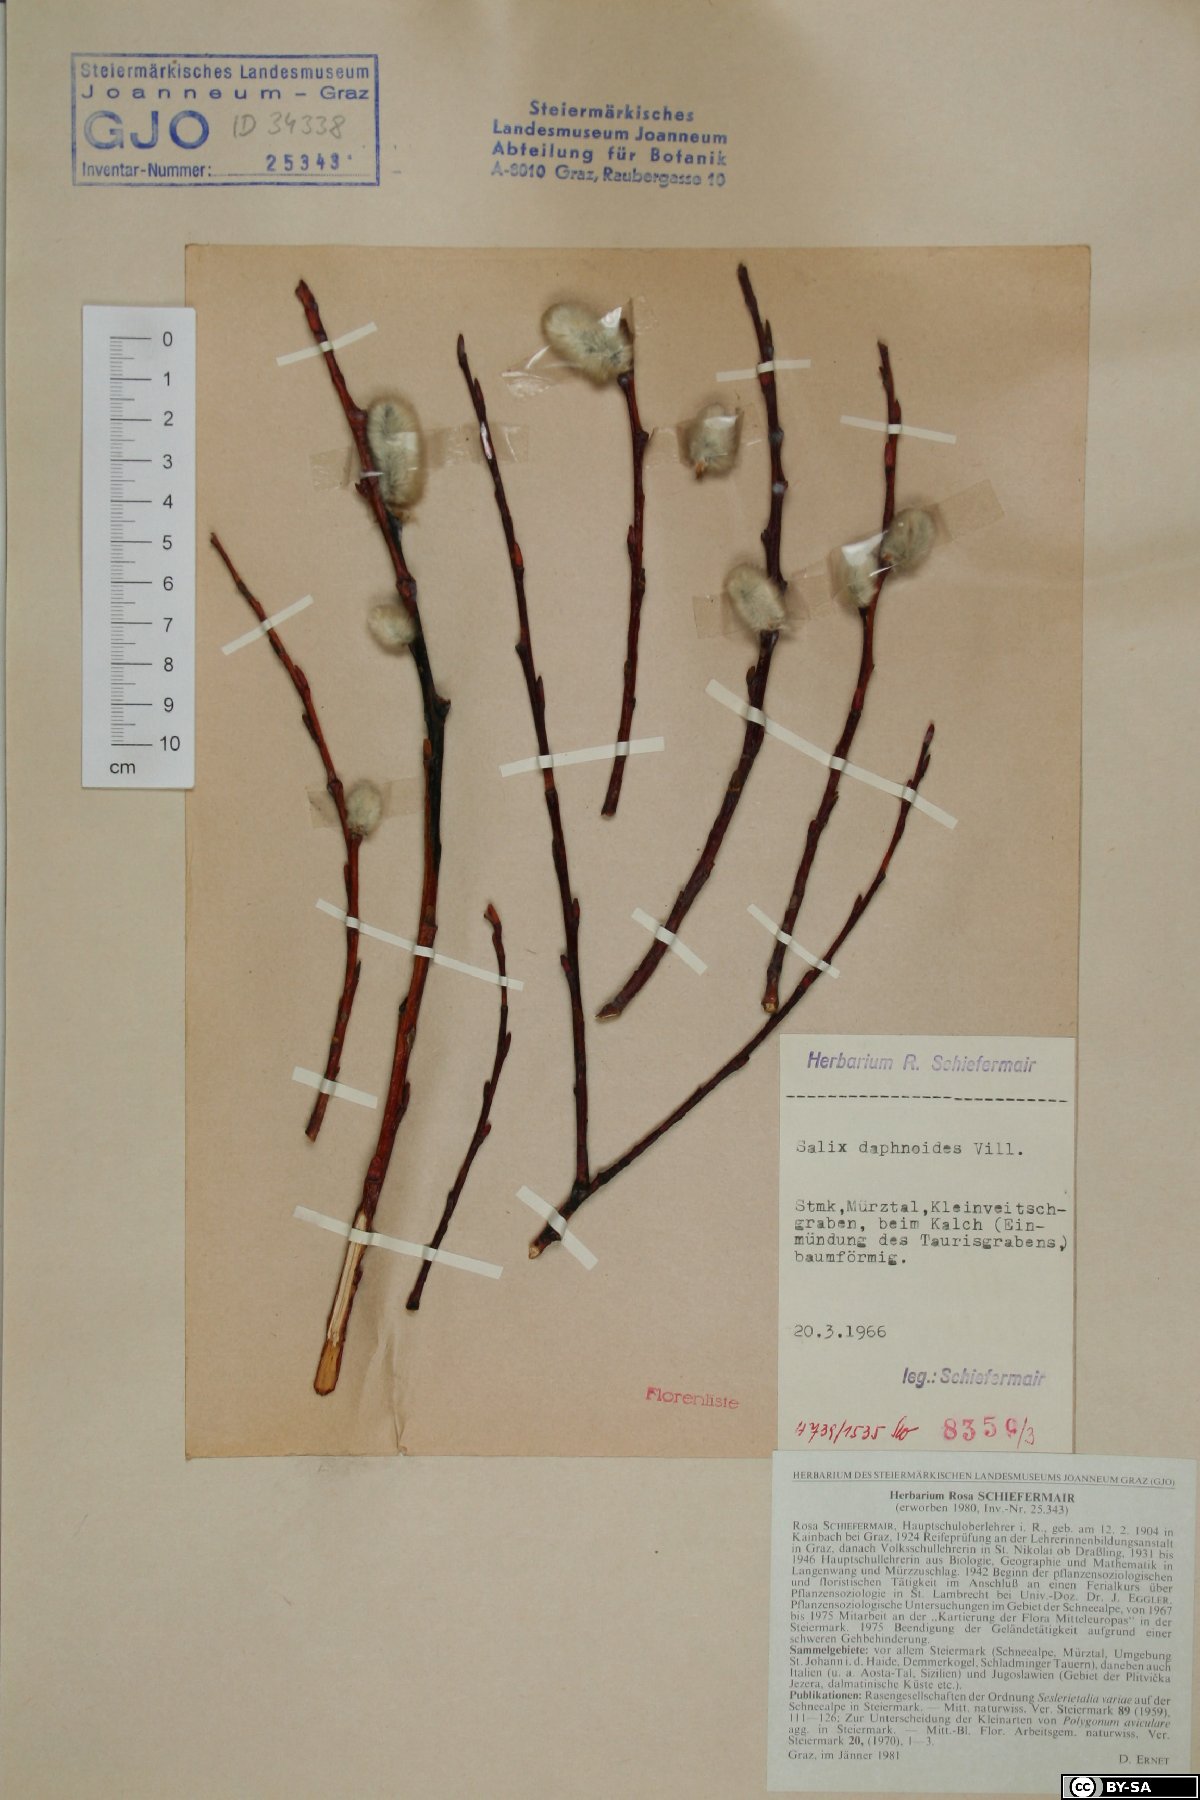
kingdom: Plantae
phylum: Tracheophyta
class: Magnoliopsida
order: Malpighiales
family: Salicaceae
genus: Salix
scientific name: Salix daphnoides
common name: European violet-willow
